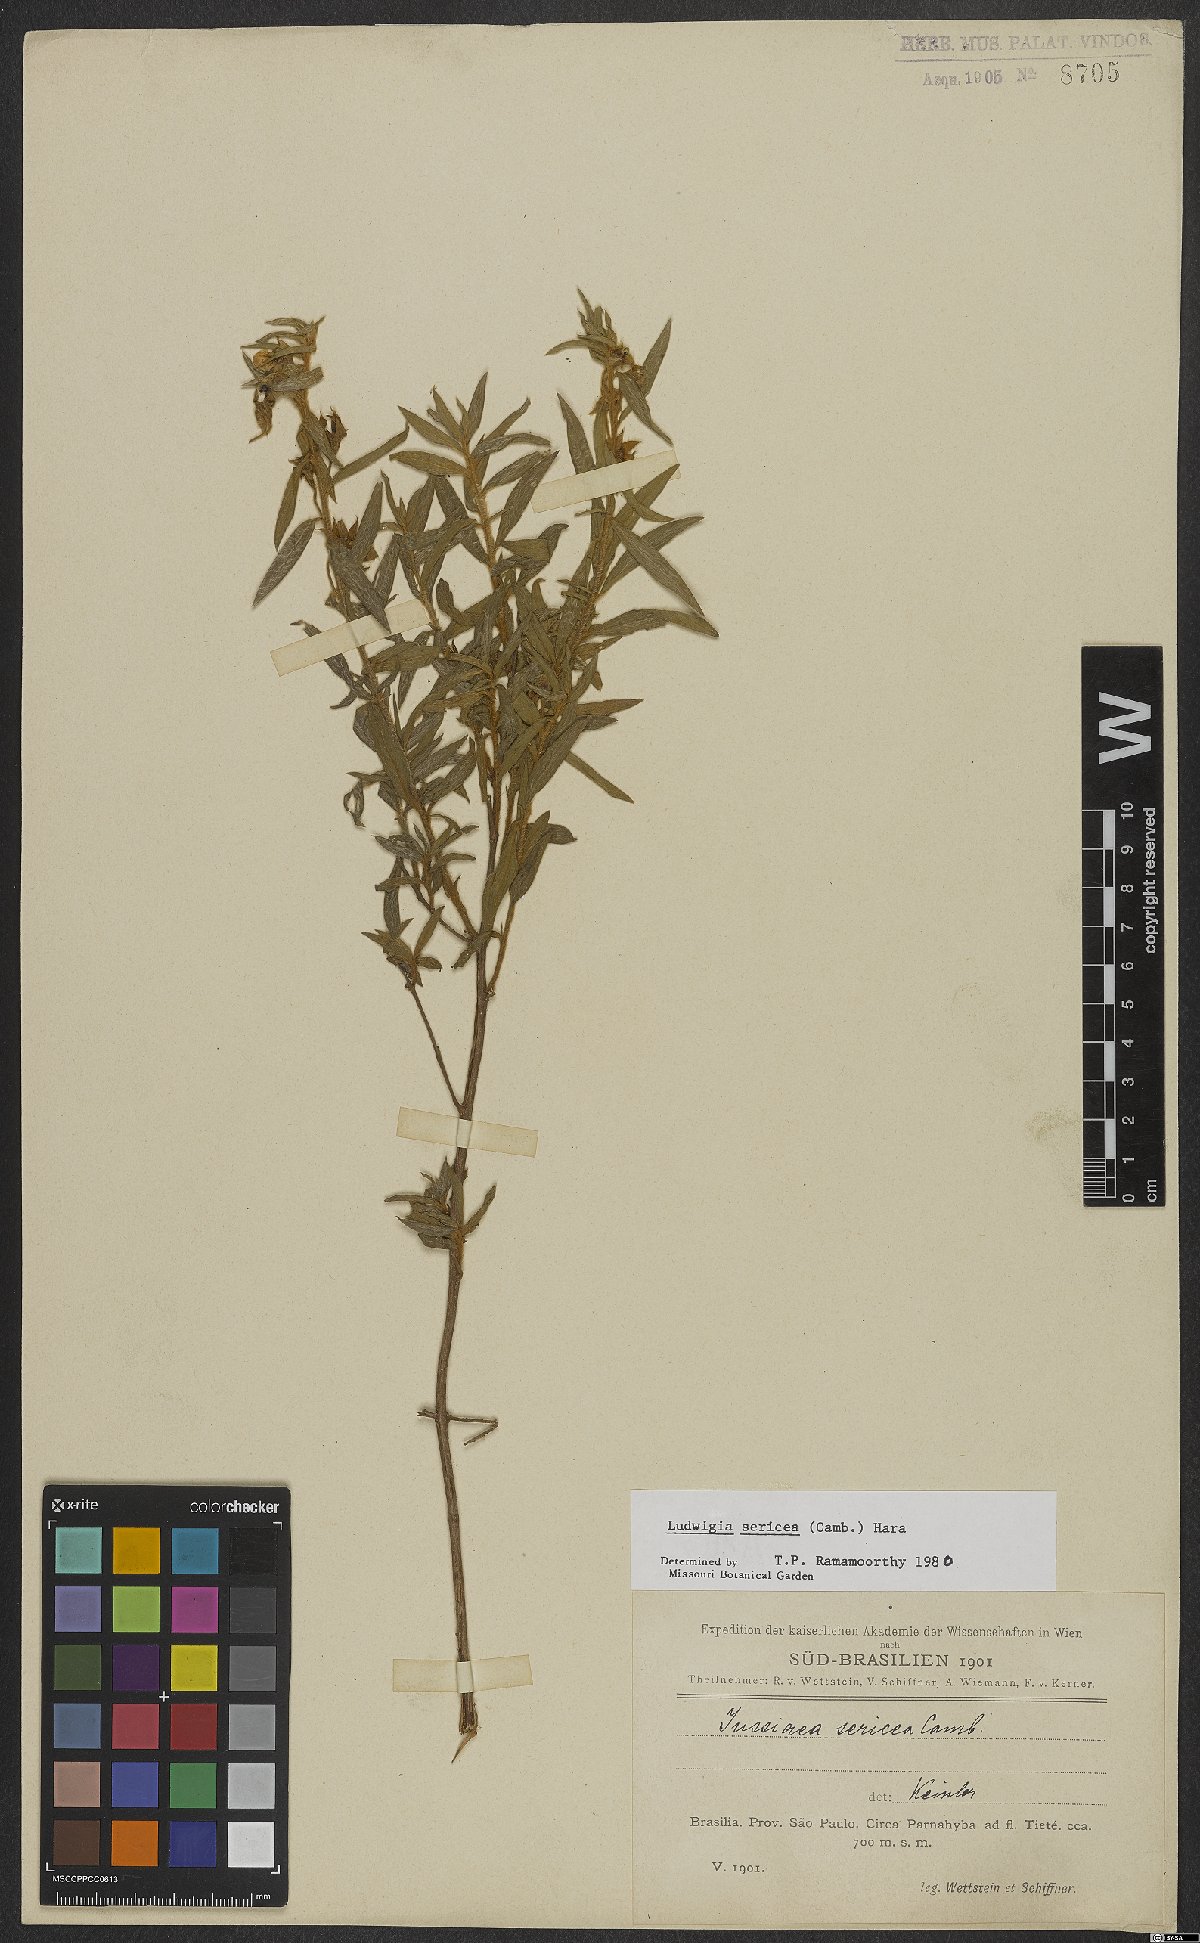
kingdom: Plantae
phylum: Tracheophyta
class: Magnoliopsida
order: Myrtales
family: Onagraceae
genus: Ludwigia
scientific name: Ludwigia sericea
